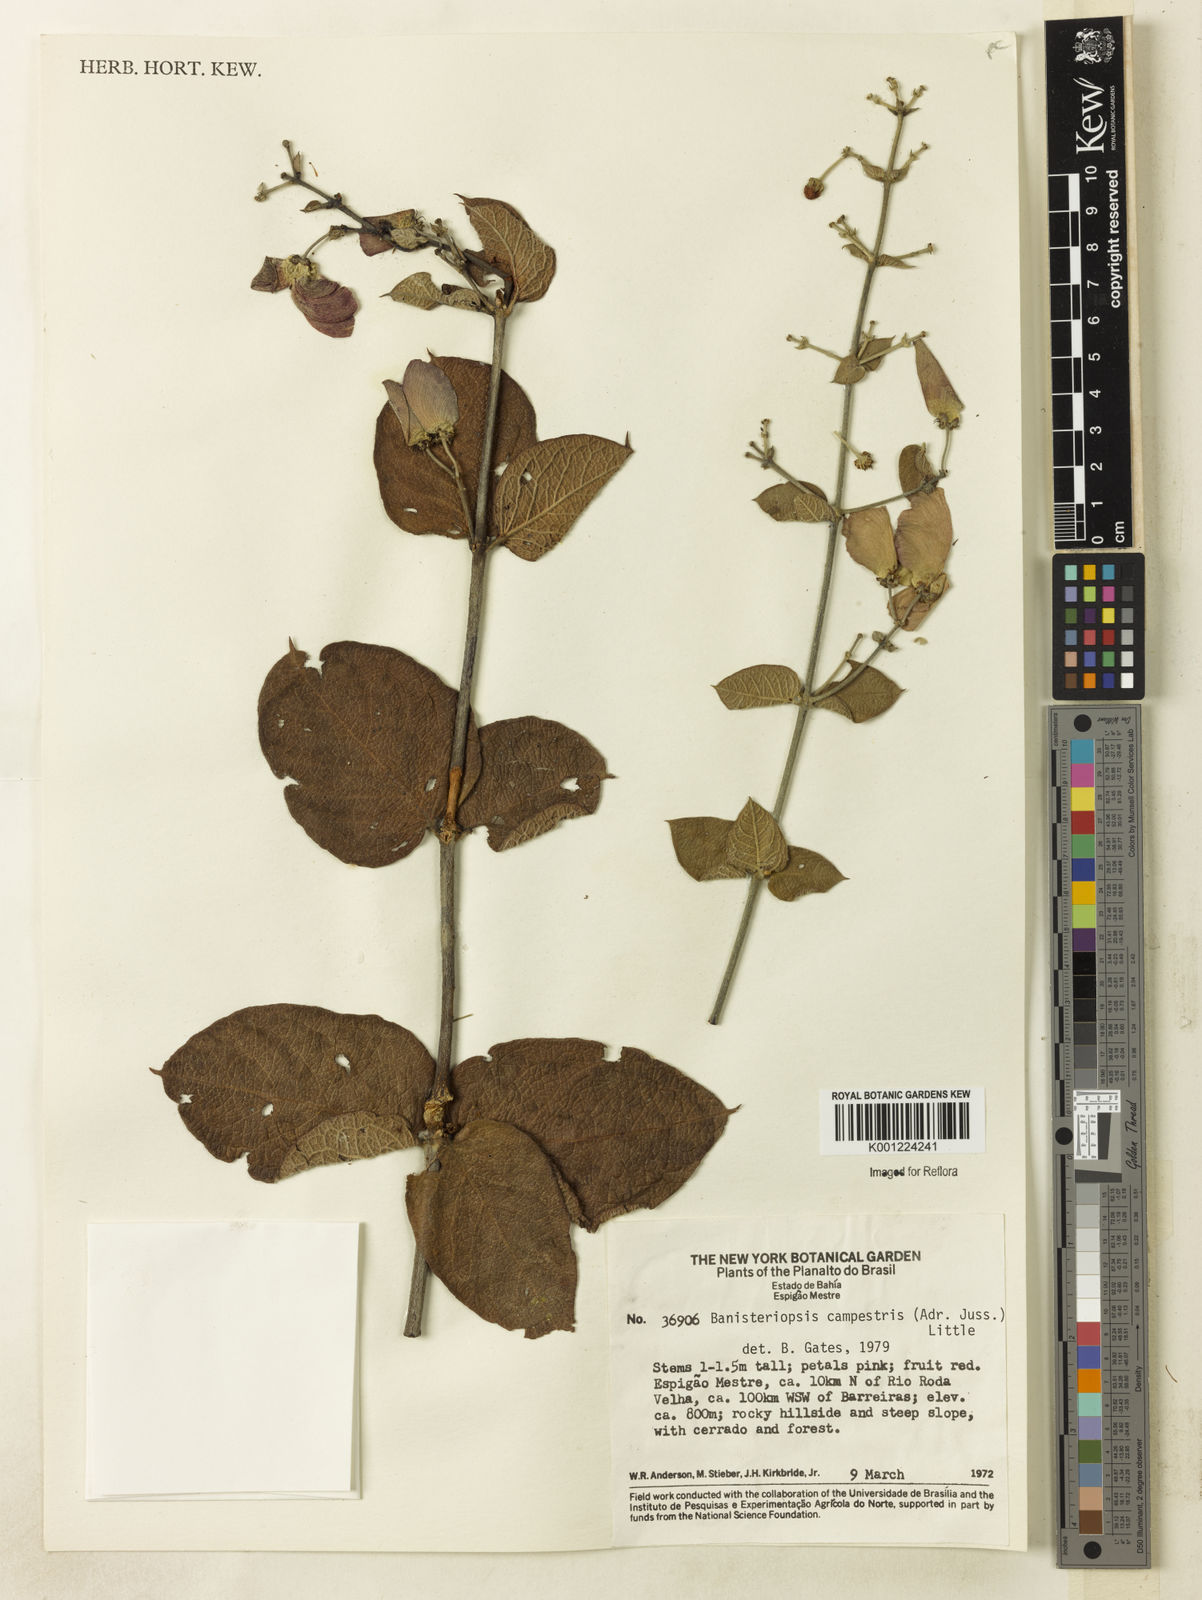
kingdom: Plantae
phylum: Tracheophyta
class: Magnoliopsida
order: Malpighiales
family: Malpighiaceae
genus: Banisteriopsis
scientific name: Banisteriopsis campestris
